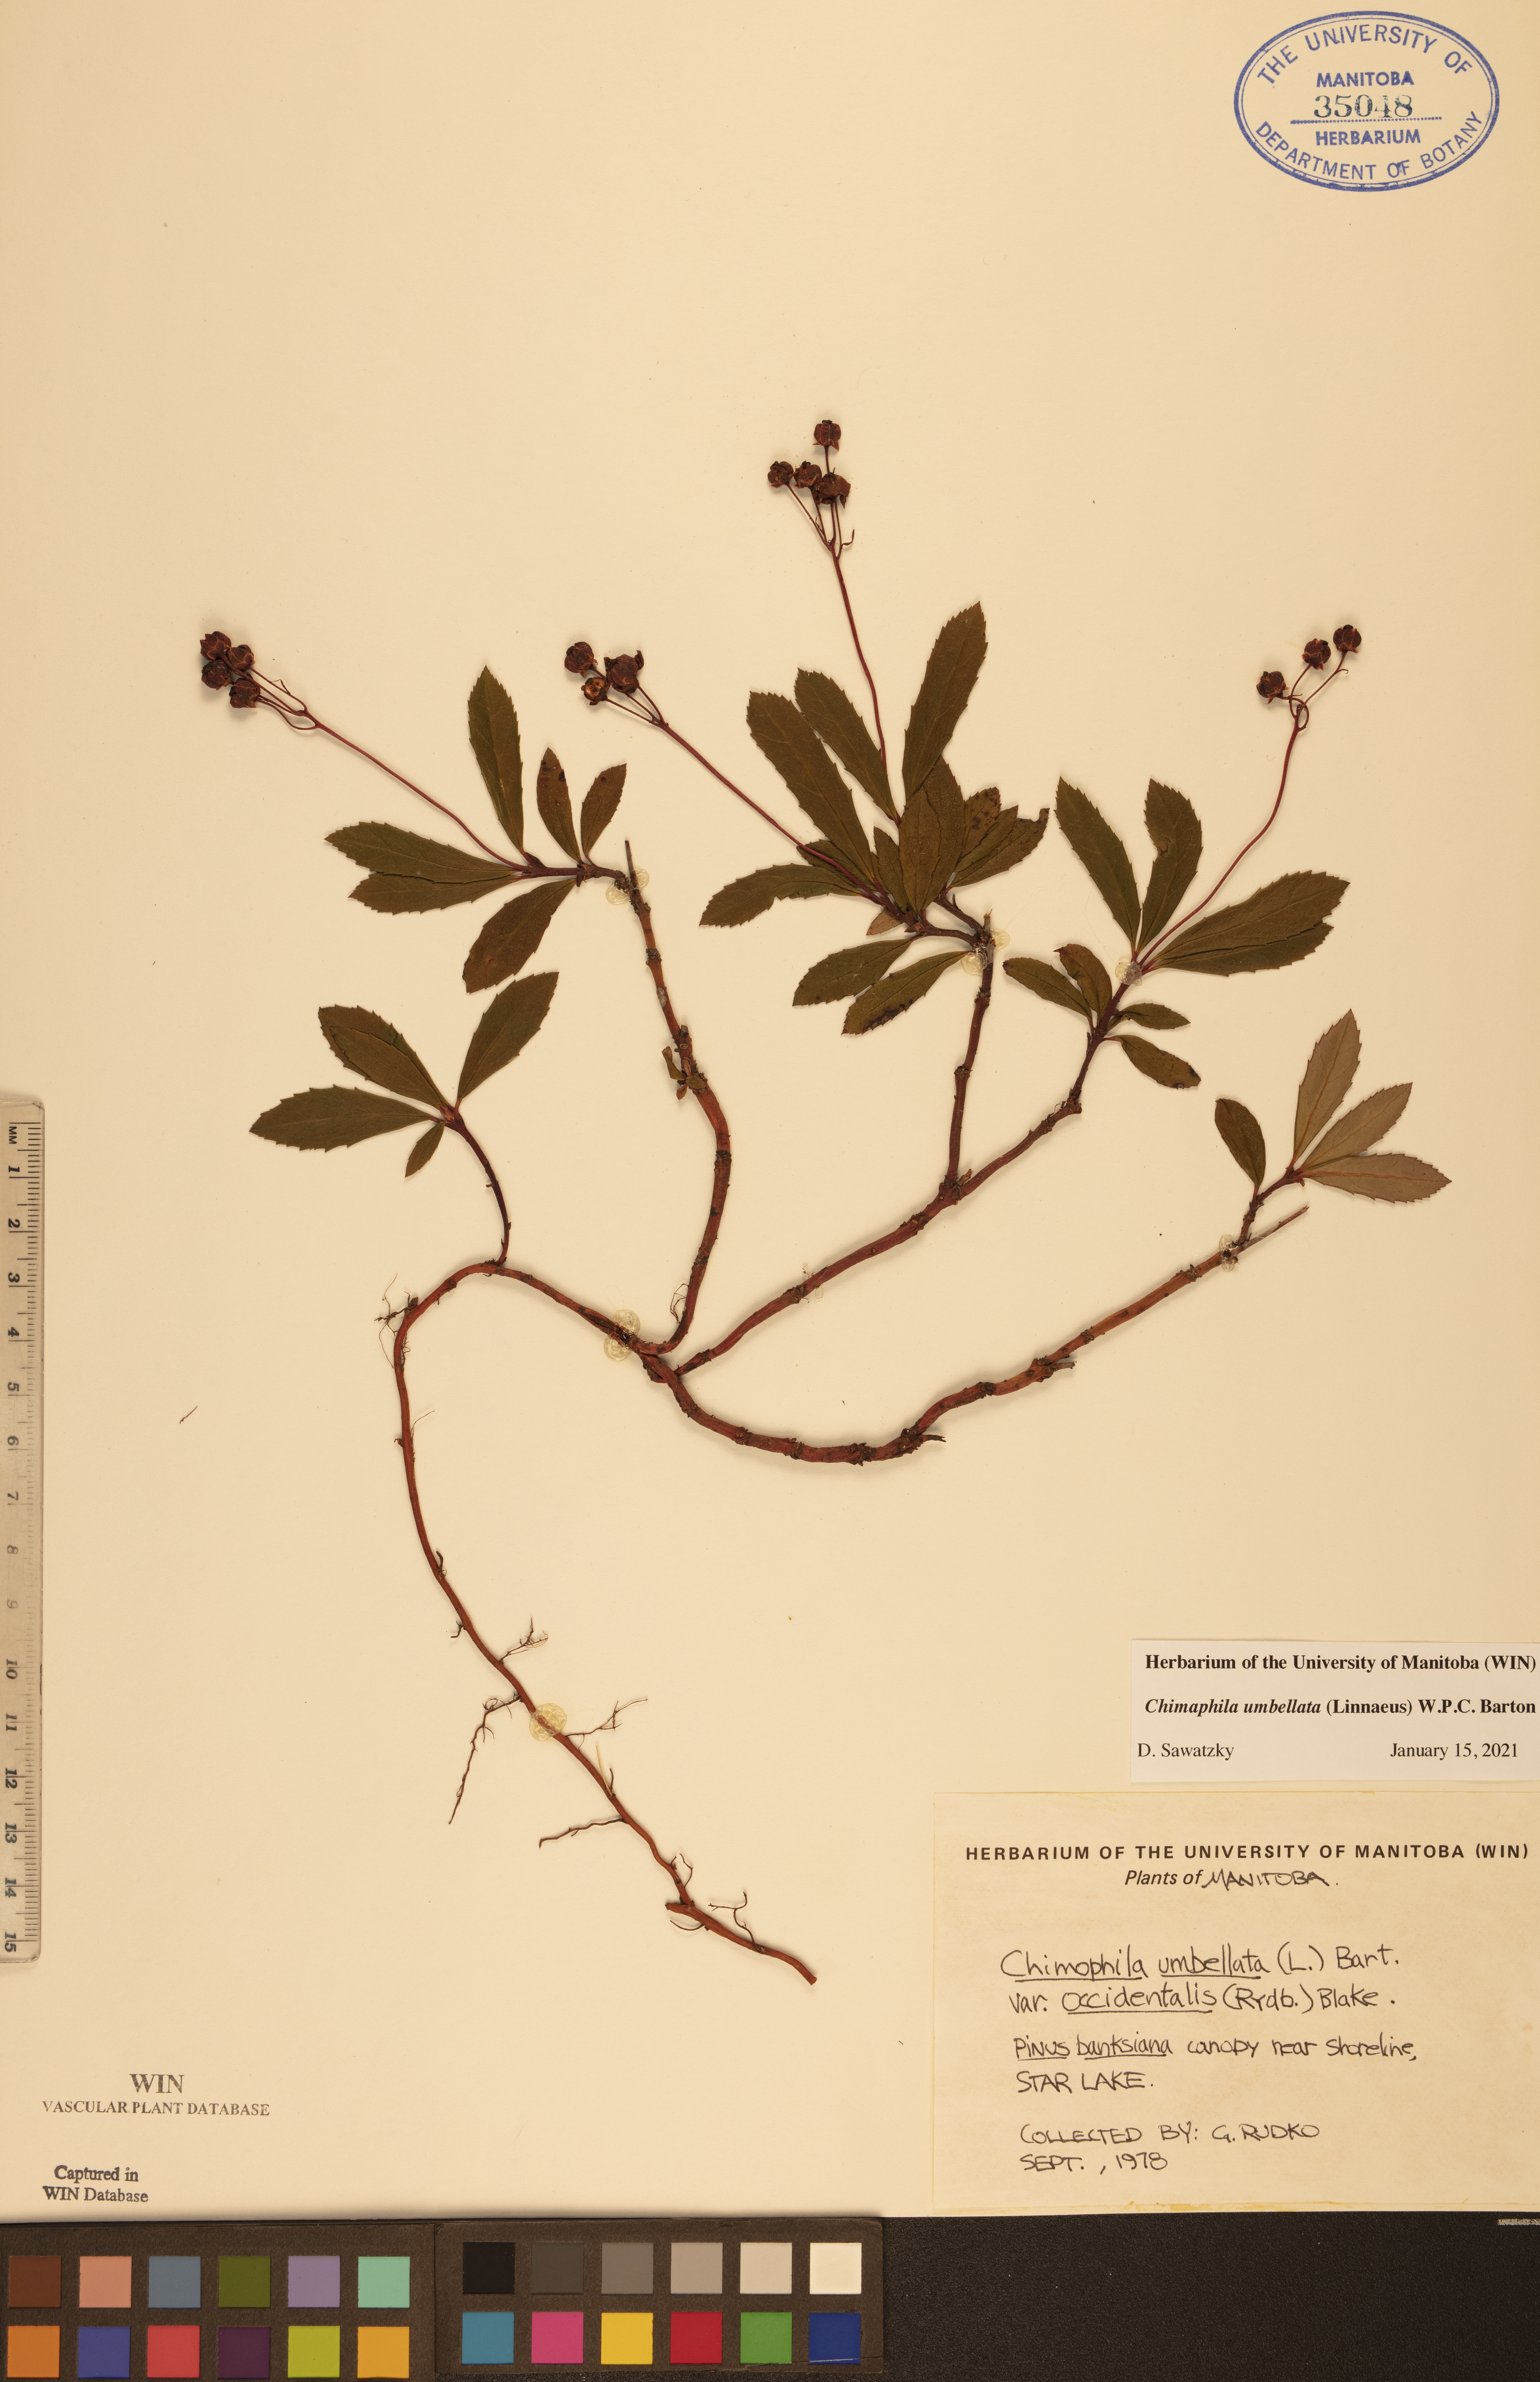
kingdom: Plantae
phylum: Tracheophyta
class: Magnoliopsida
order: Ericales
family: Ericaceae
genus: Chimaphila
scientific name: Chimaphila umbellata
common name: Pipsissewa
